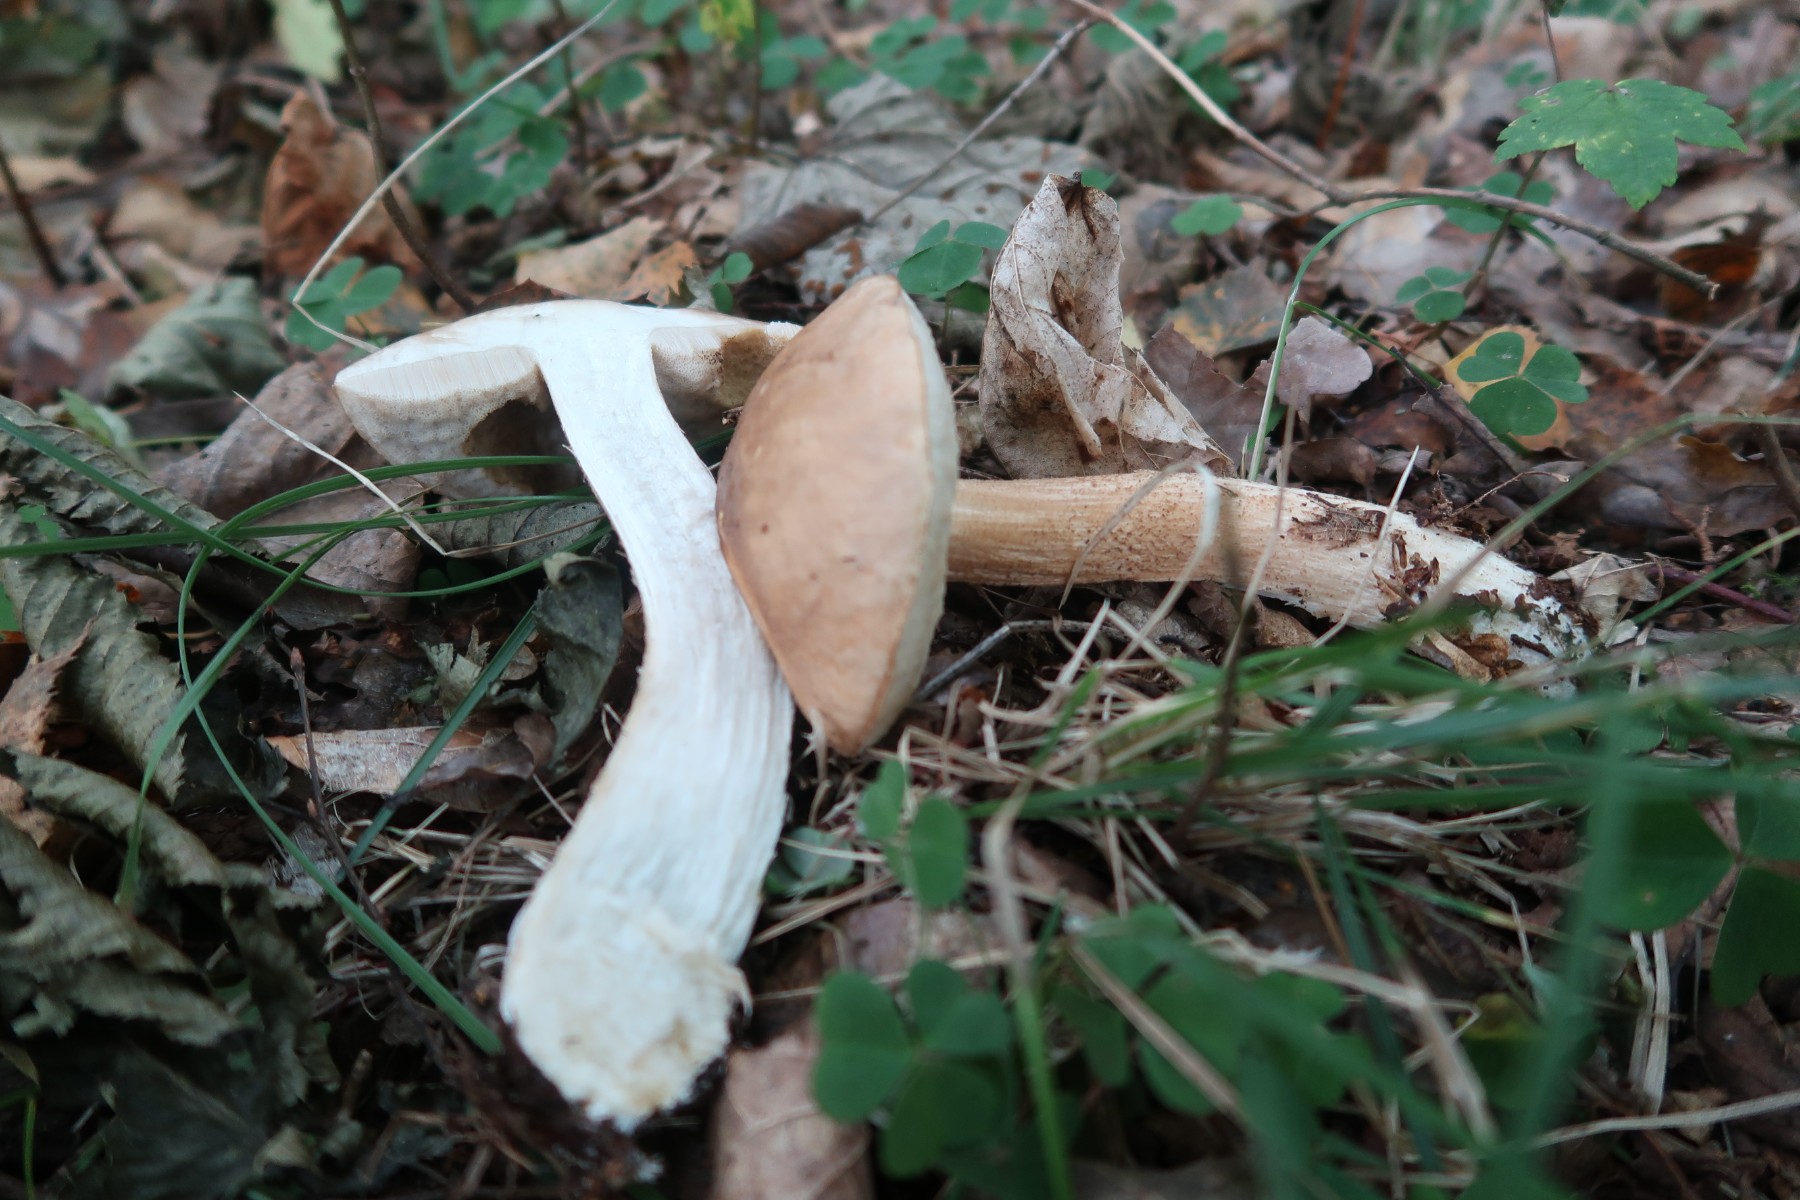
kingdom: Fungi
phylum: Basidiomycota
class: Agaricomycetes
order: Boletales
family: Boletaceae
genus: Leccinum
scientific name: Leccinum scabrum
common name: brun skælrørhat
